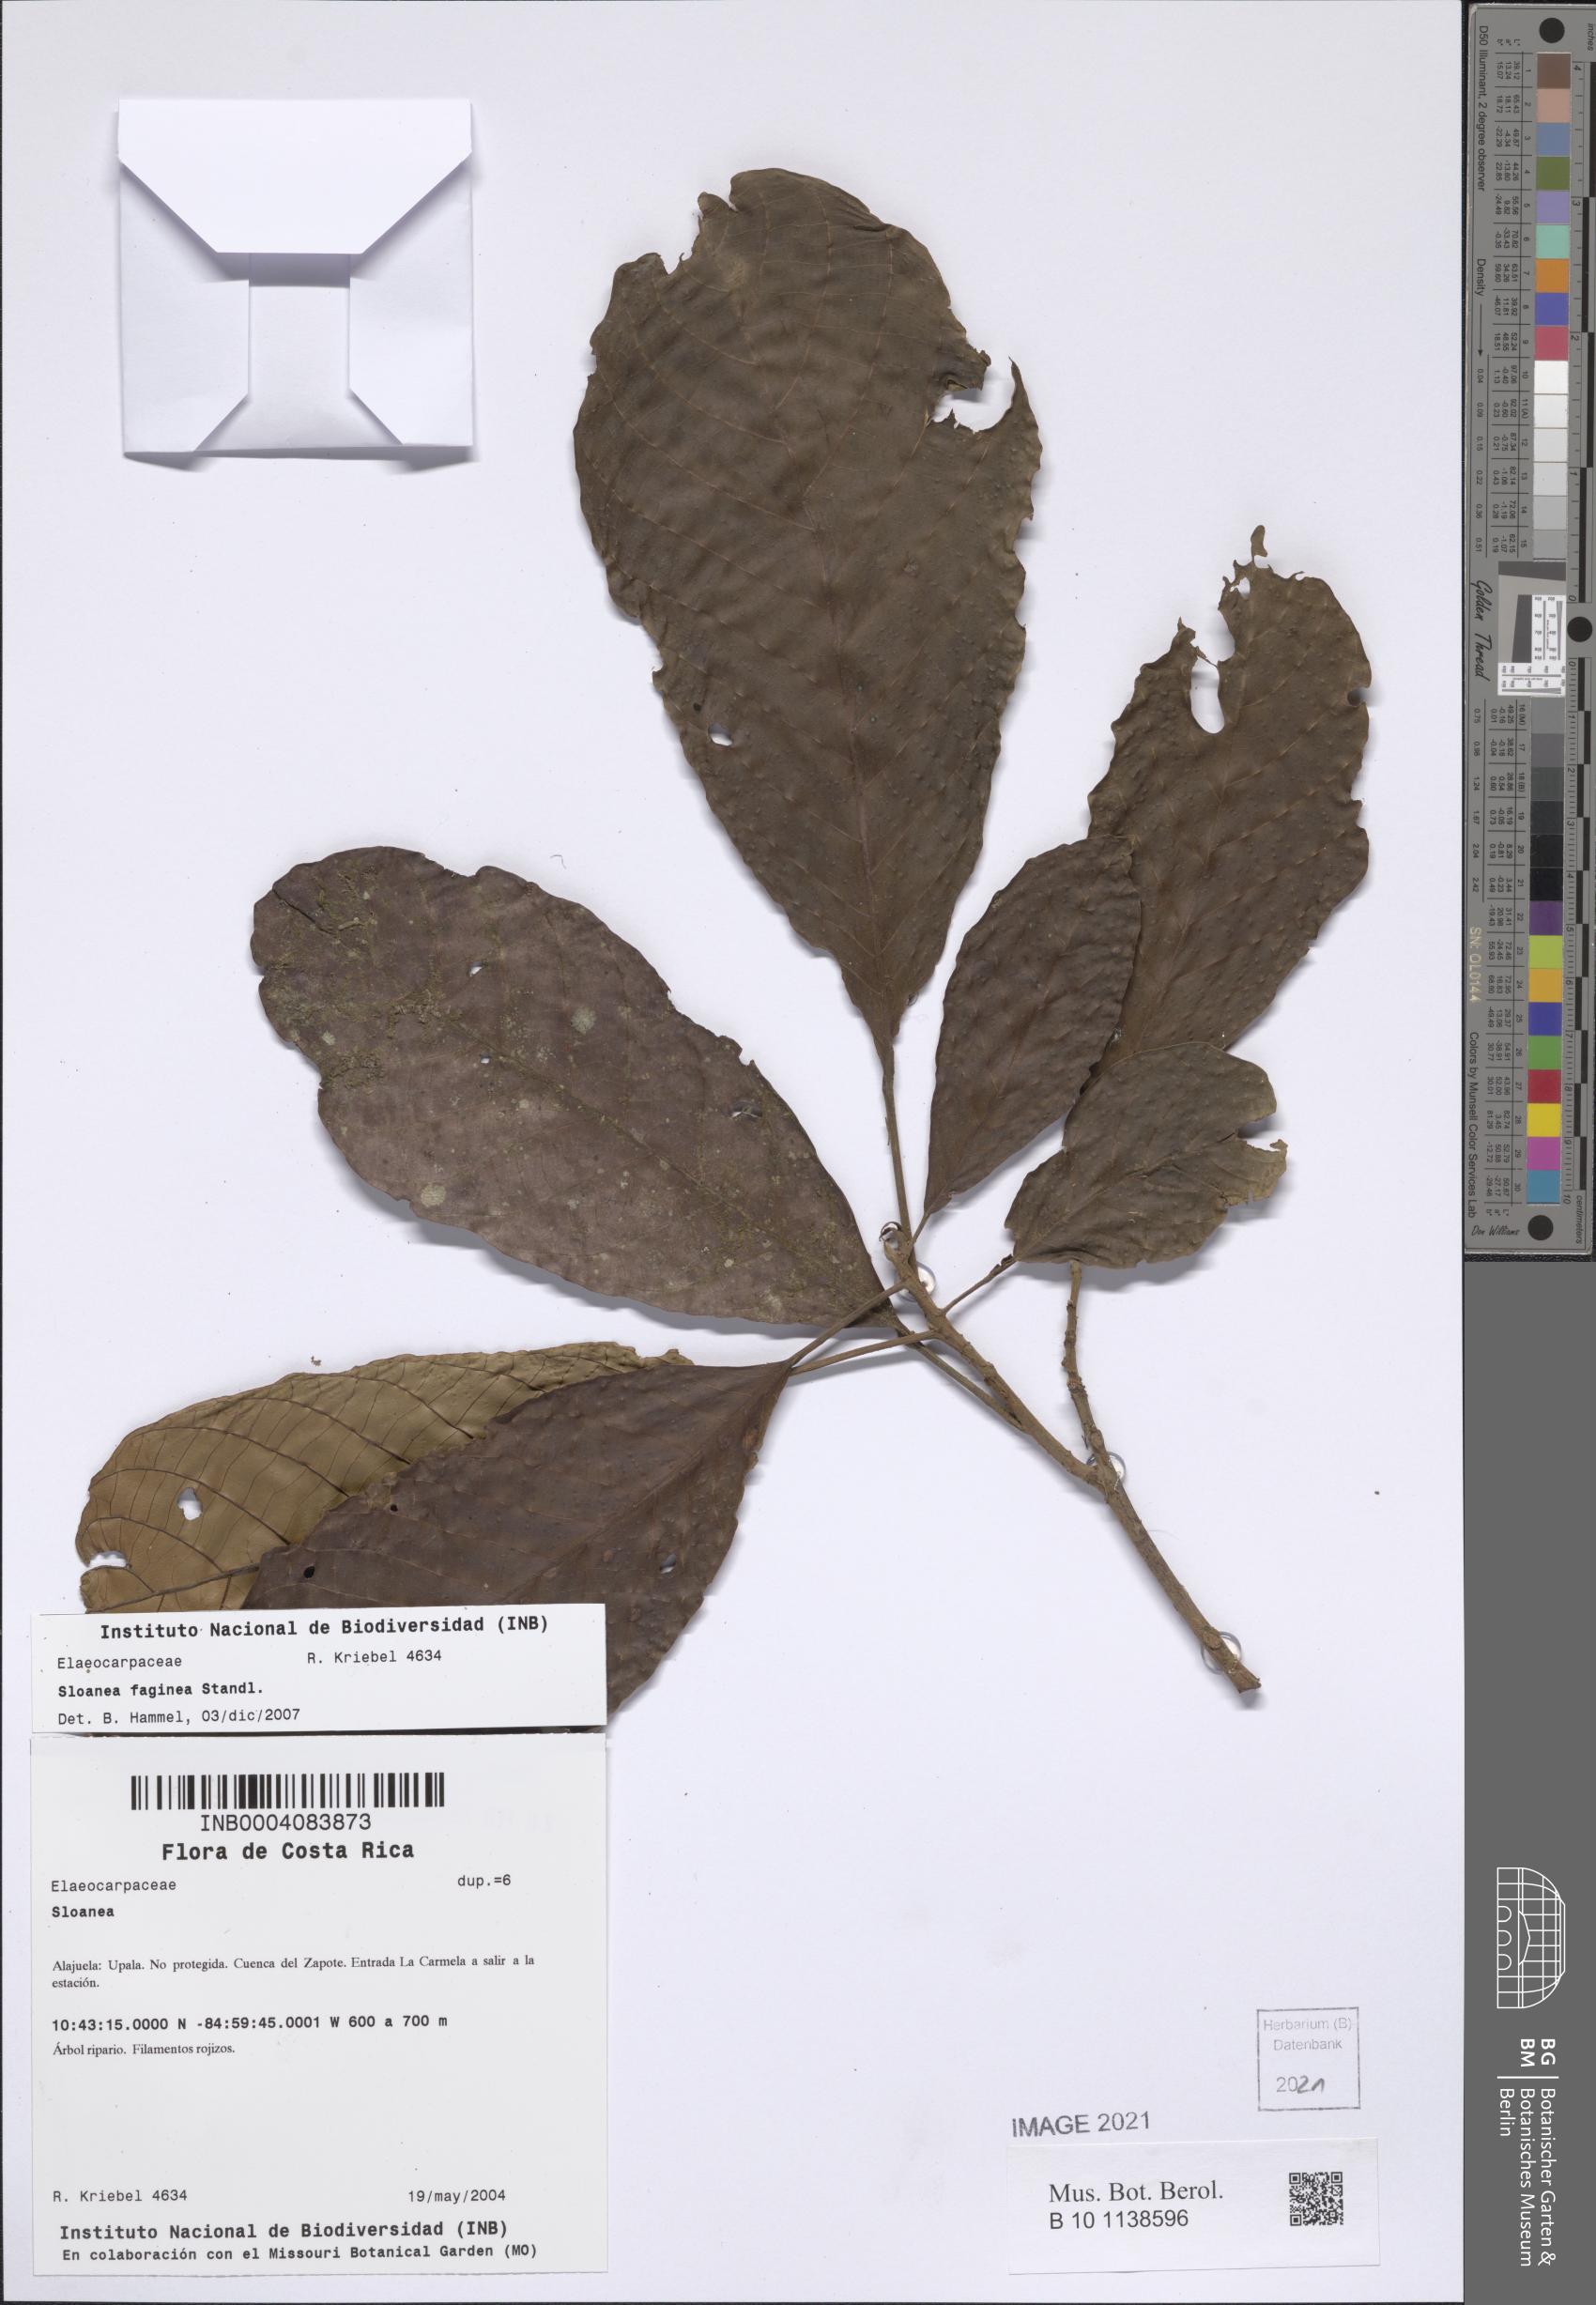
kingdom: Plantae
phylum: Tracheophyta
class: Magnoliopsida
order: Oxalidales
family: Elaeocarpaceae
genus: Sloanea
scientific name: Sloanea faginea
